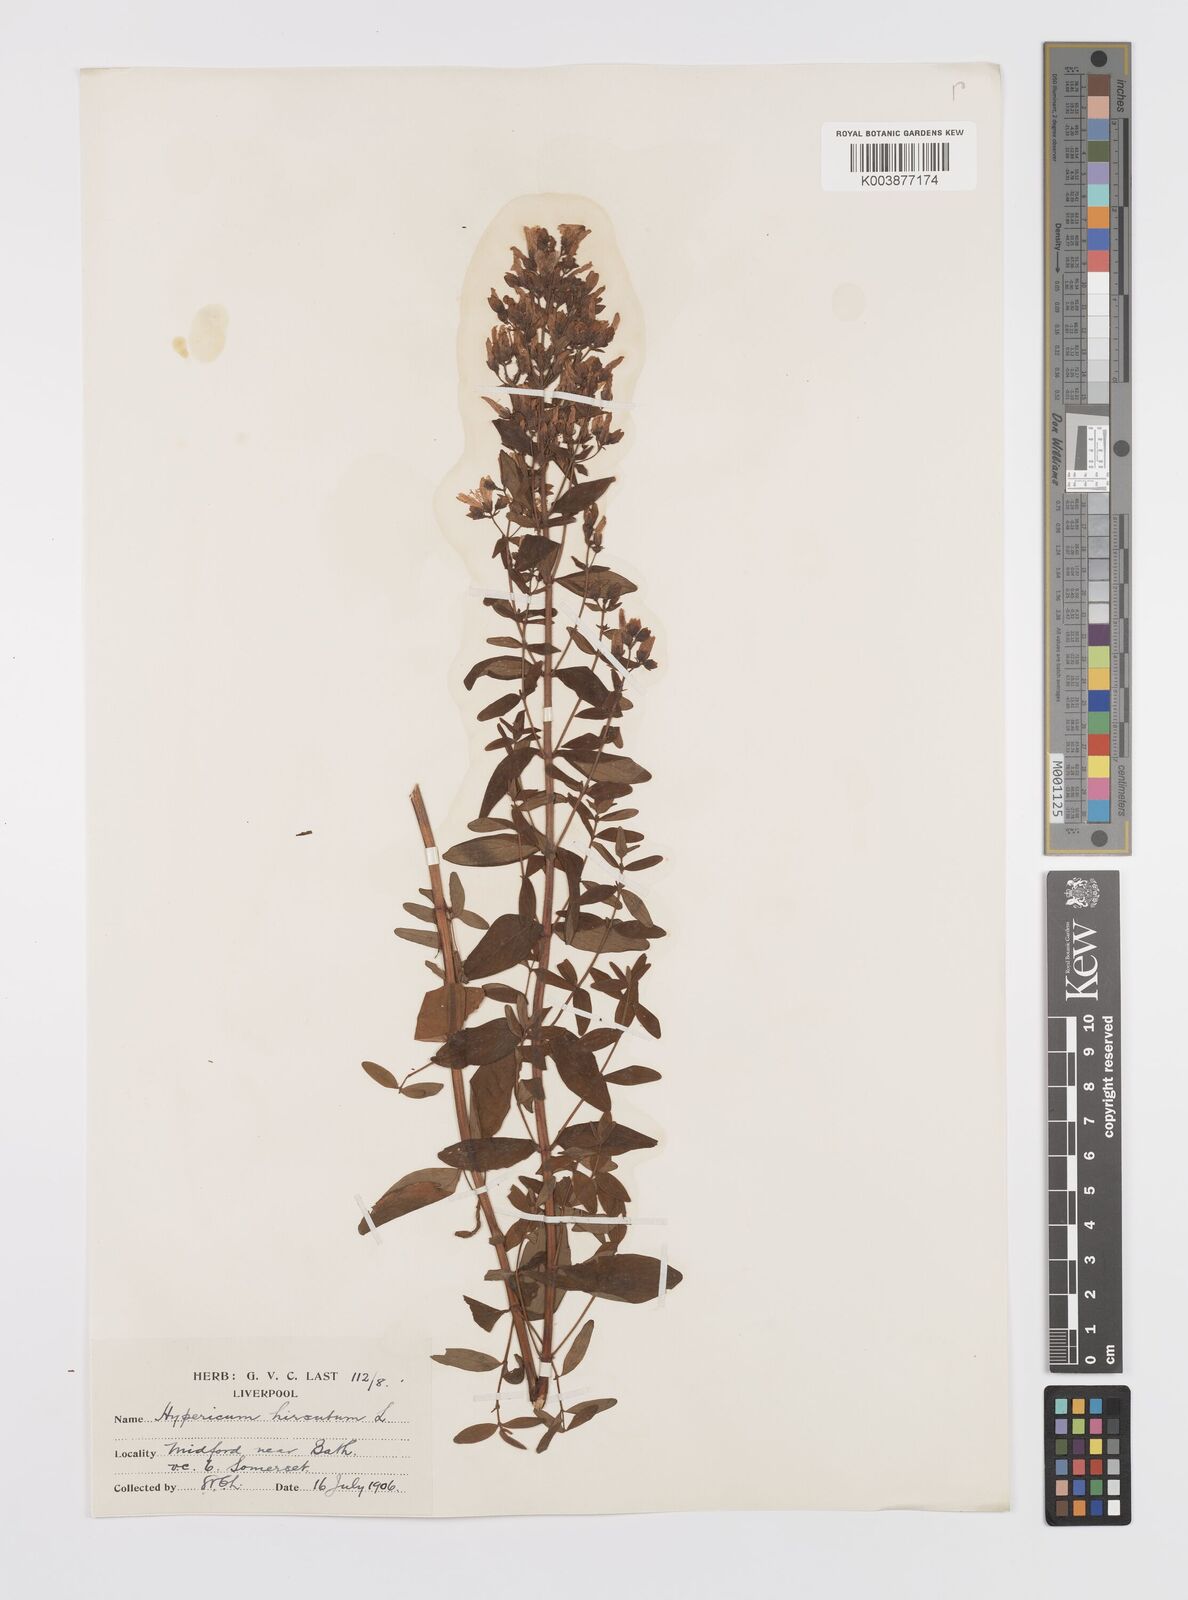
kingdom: Plantae
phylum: Tracheophyta
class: Magnoliopsida
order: Malpighiales
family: Hypericaceae
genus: Hypericum
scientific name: Hypericum hirsutum
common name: Hairy st. john's-wort
